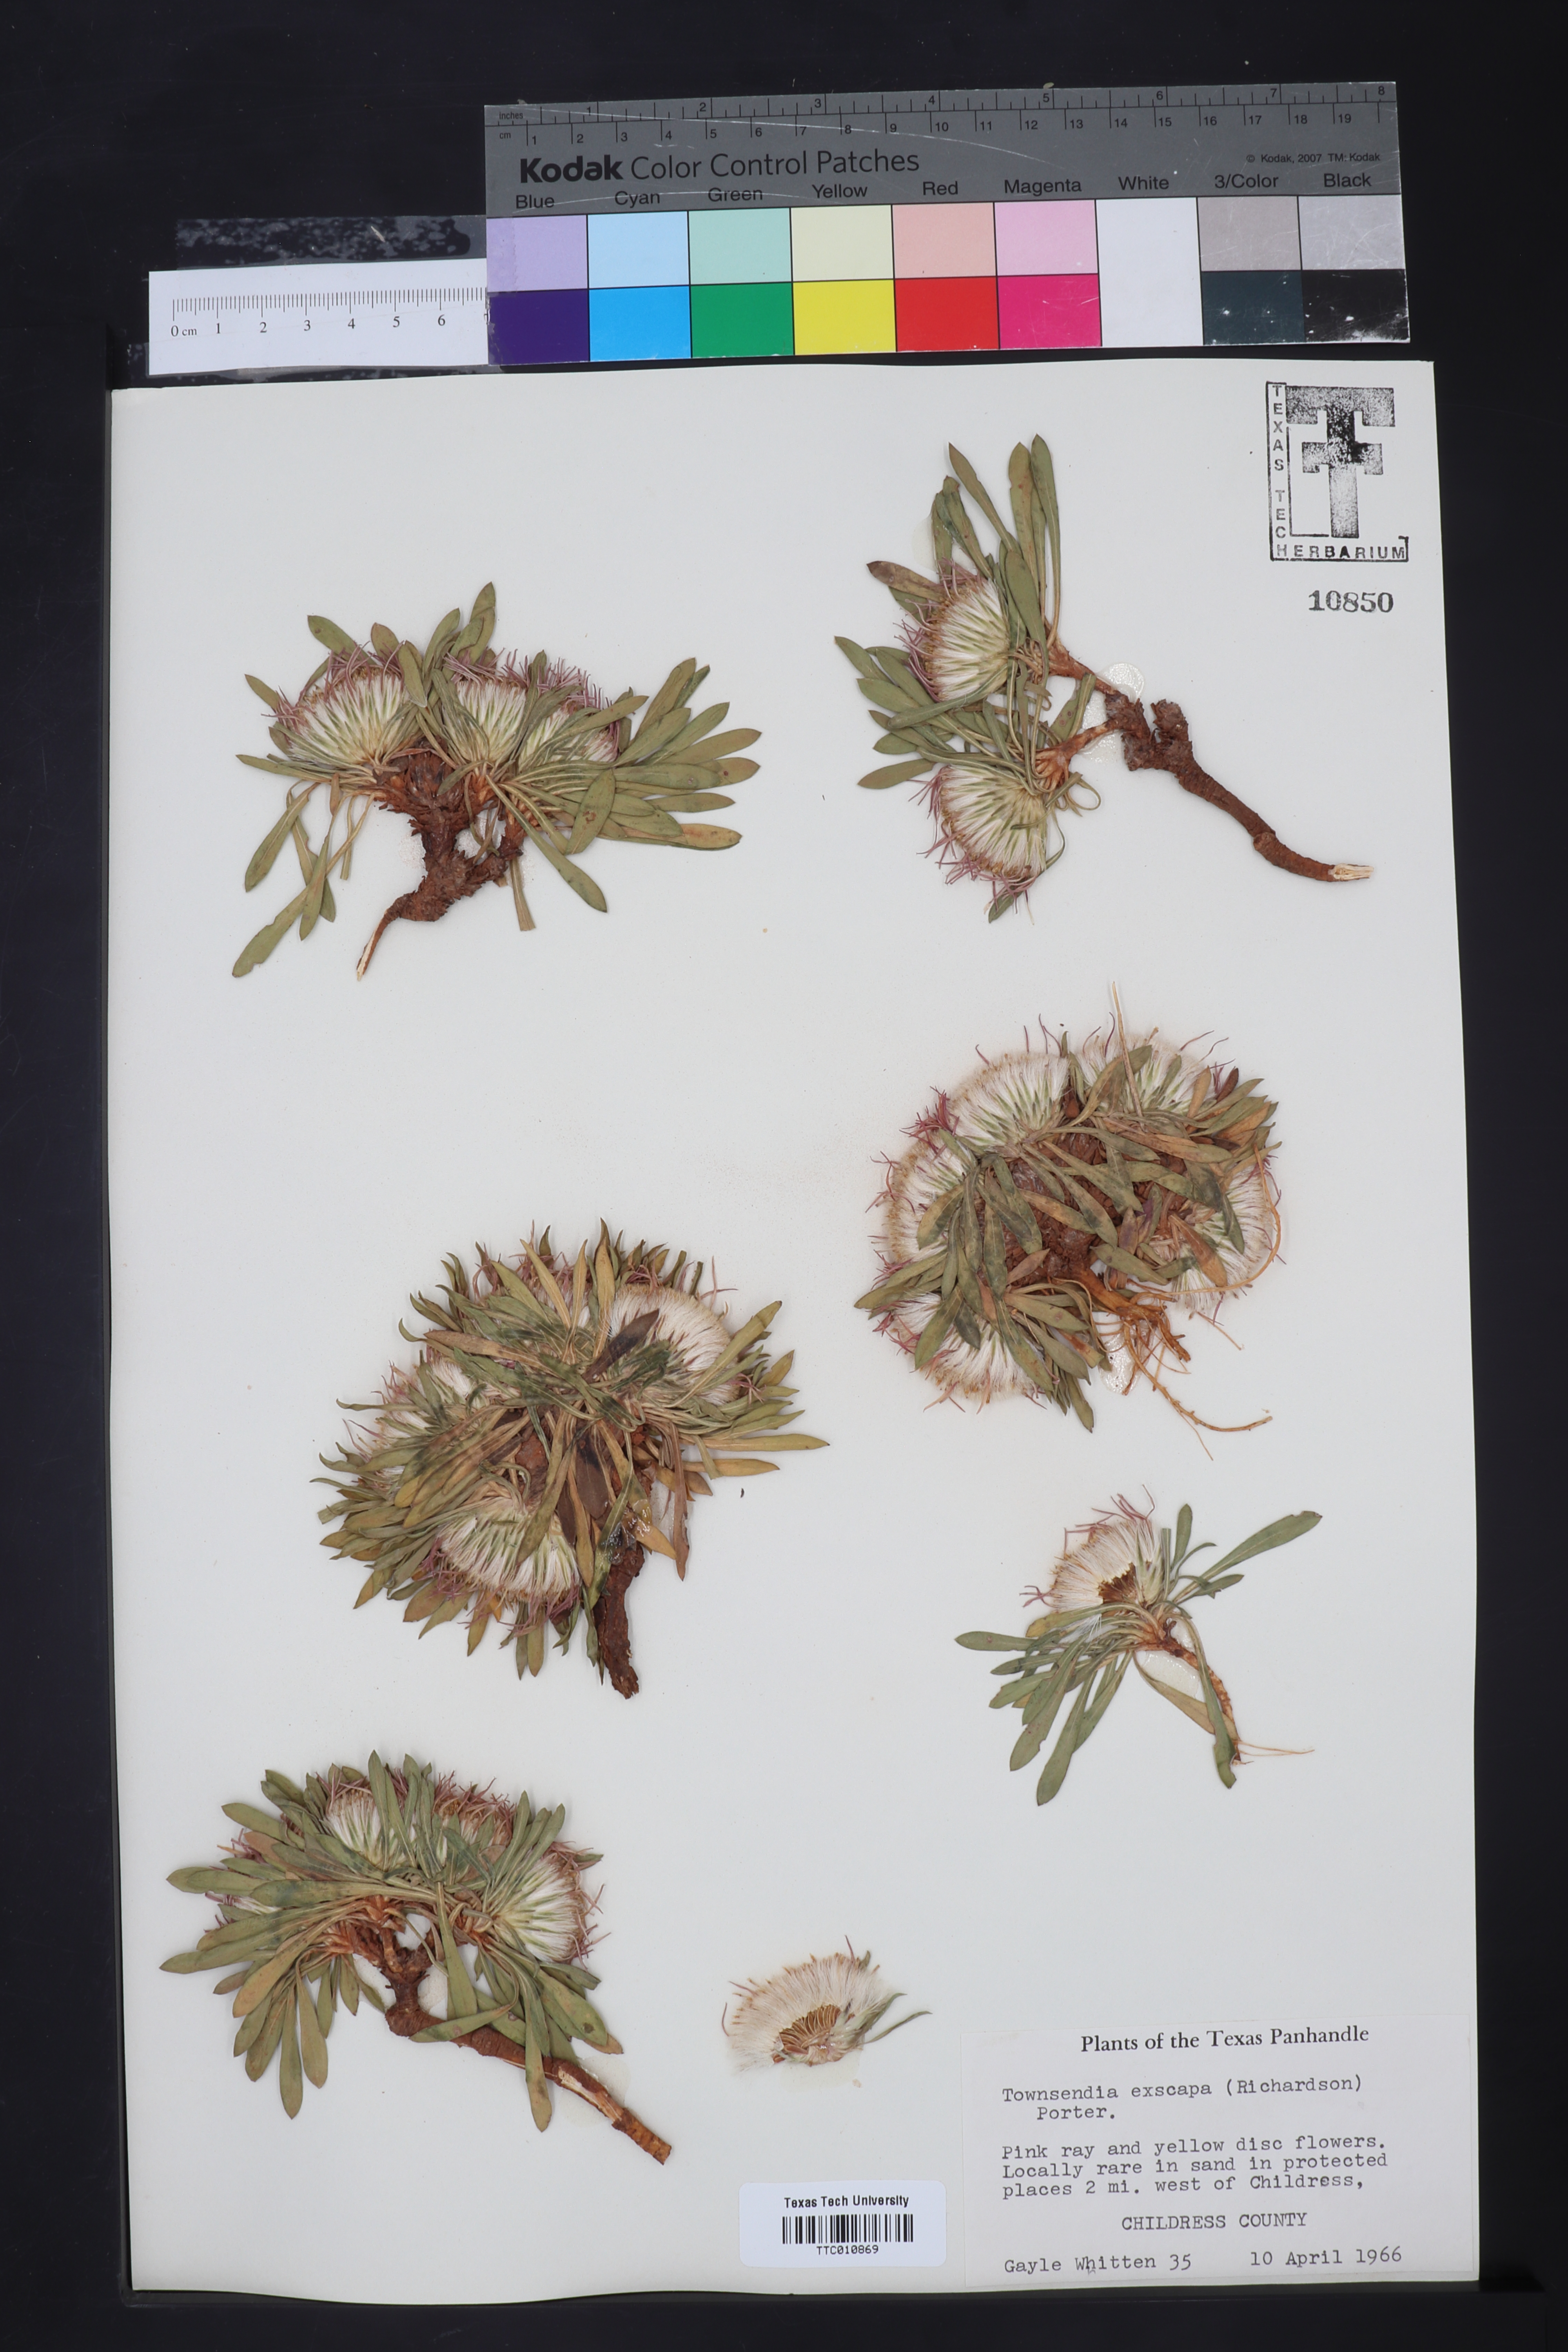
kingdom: Plantae
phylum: Tracheophyta
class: Magnoliopsida
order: Asterales
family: Asteraceae
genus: Townsendia
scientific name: Townsendia exscapa
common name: Dwarf townsendia
